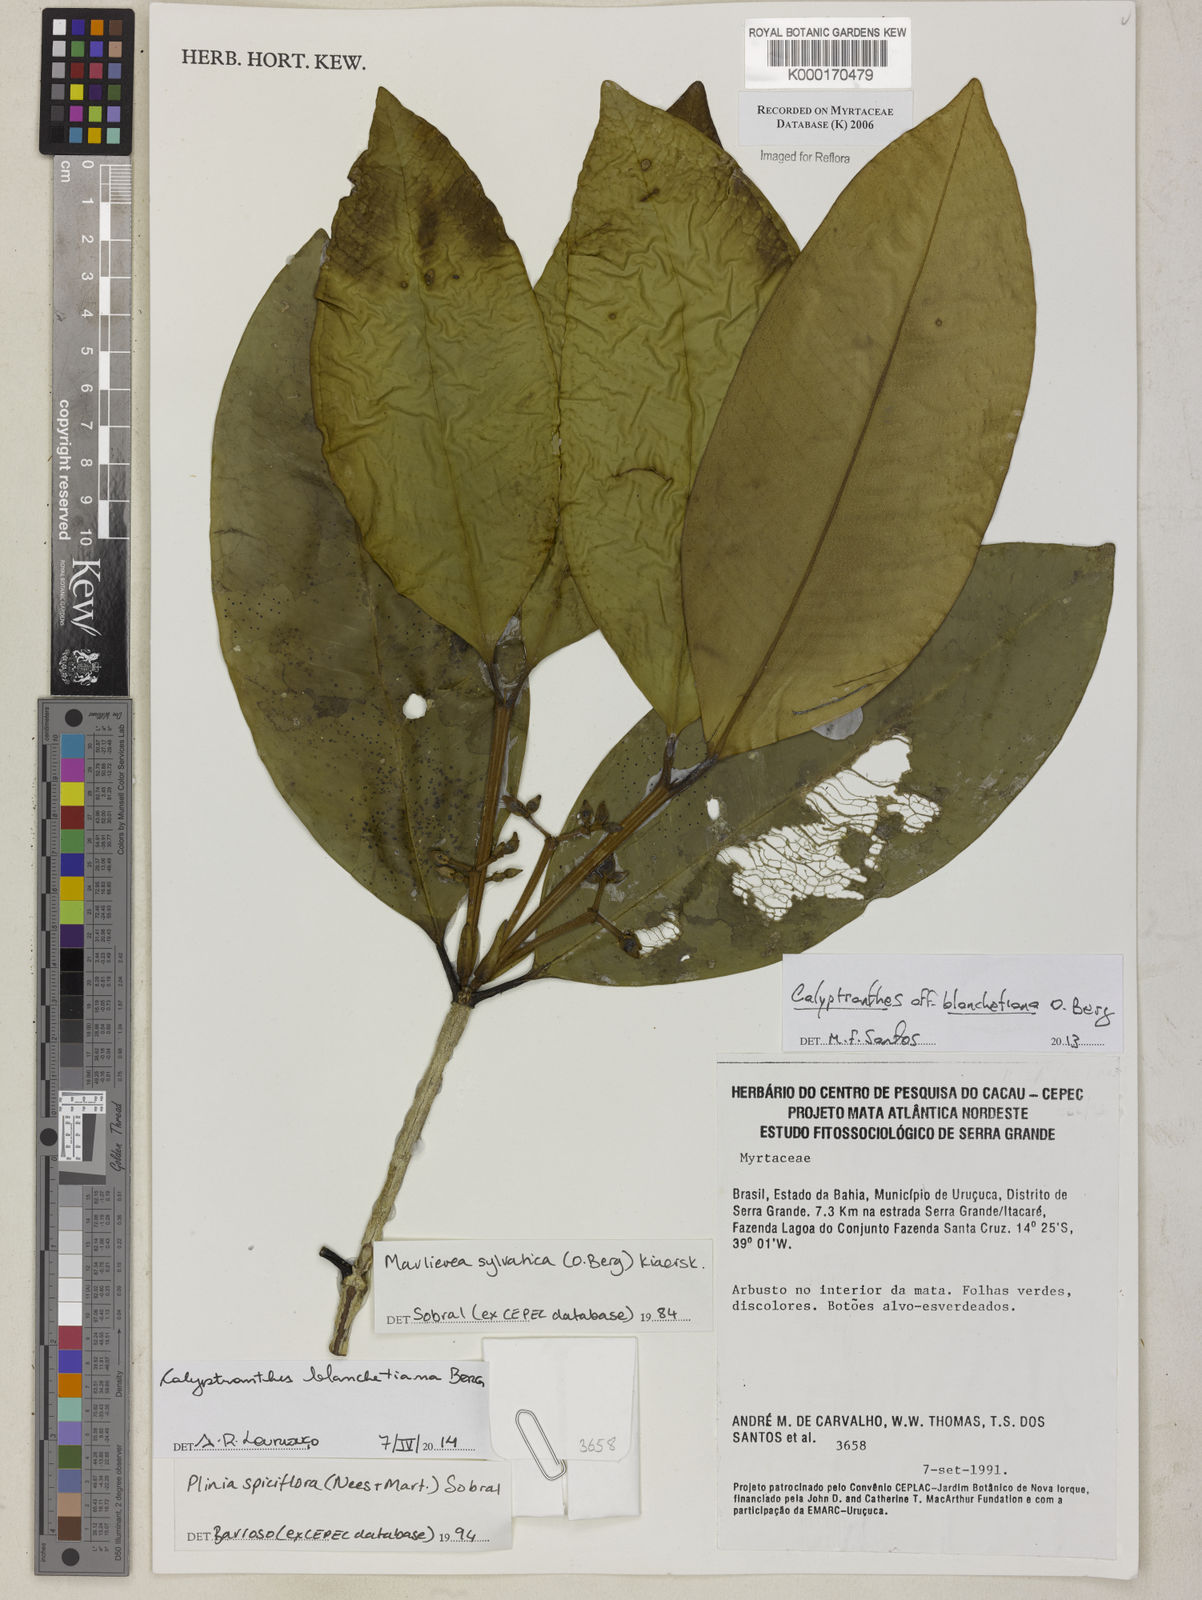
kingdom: Plantae
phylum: Tracheophyta
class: Magnoliopsida
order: Myrtales
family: Myrtaceae
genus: Marlierea
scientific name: Marlierea
